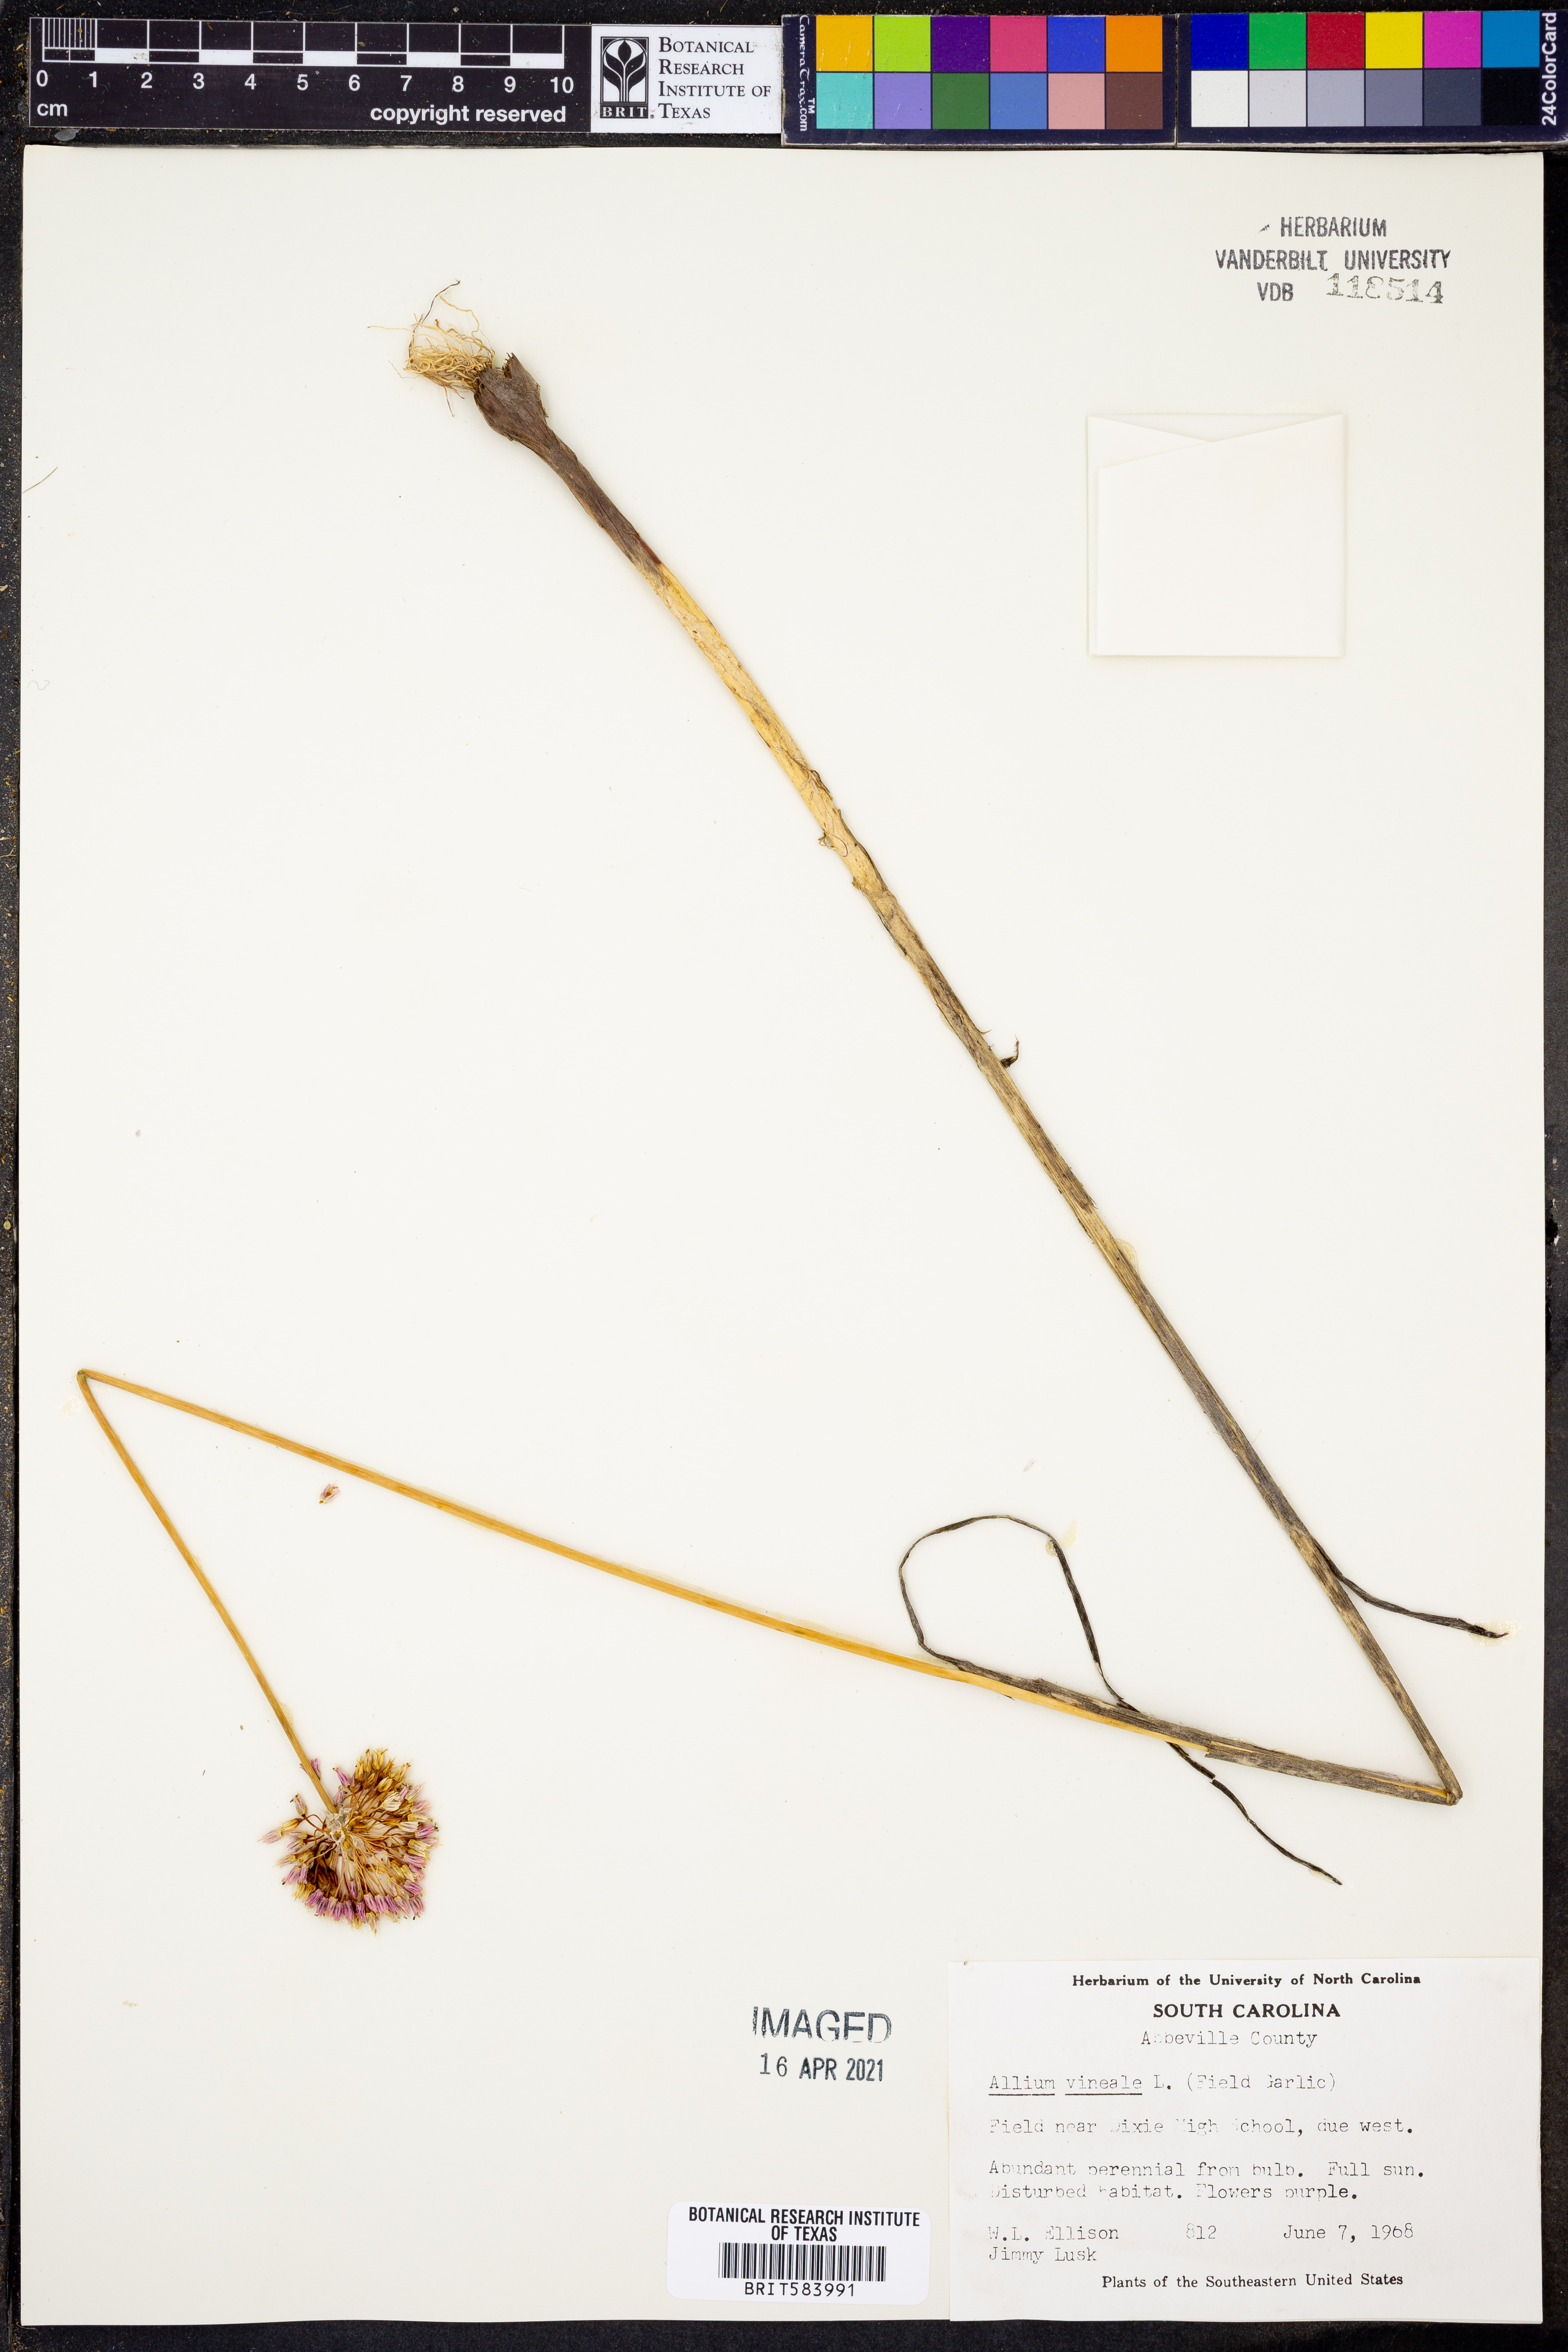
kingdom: Plantae
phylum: Tracheophyta
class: Liliopsida
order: Asparagales
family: Amaryllidaceae
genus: Allium
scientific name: Allium vineale
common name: Crow garlic
